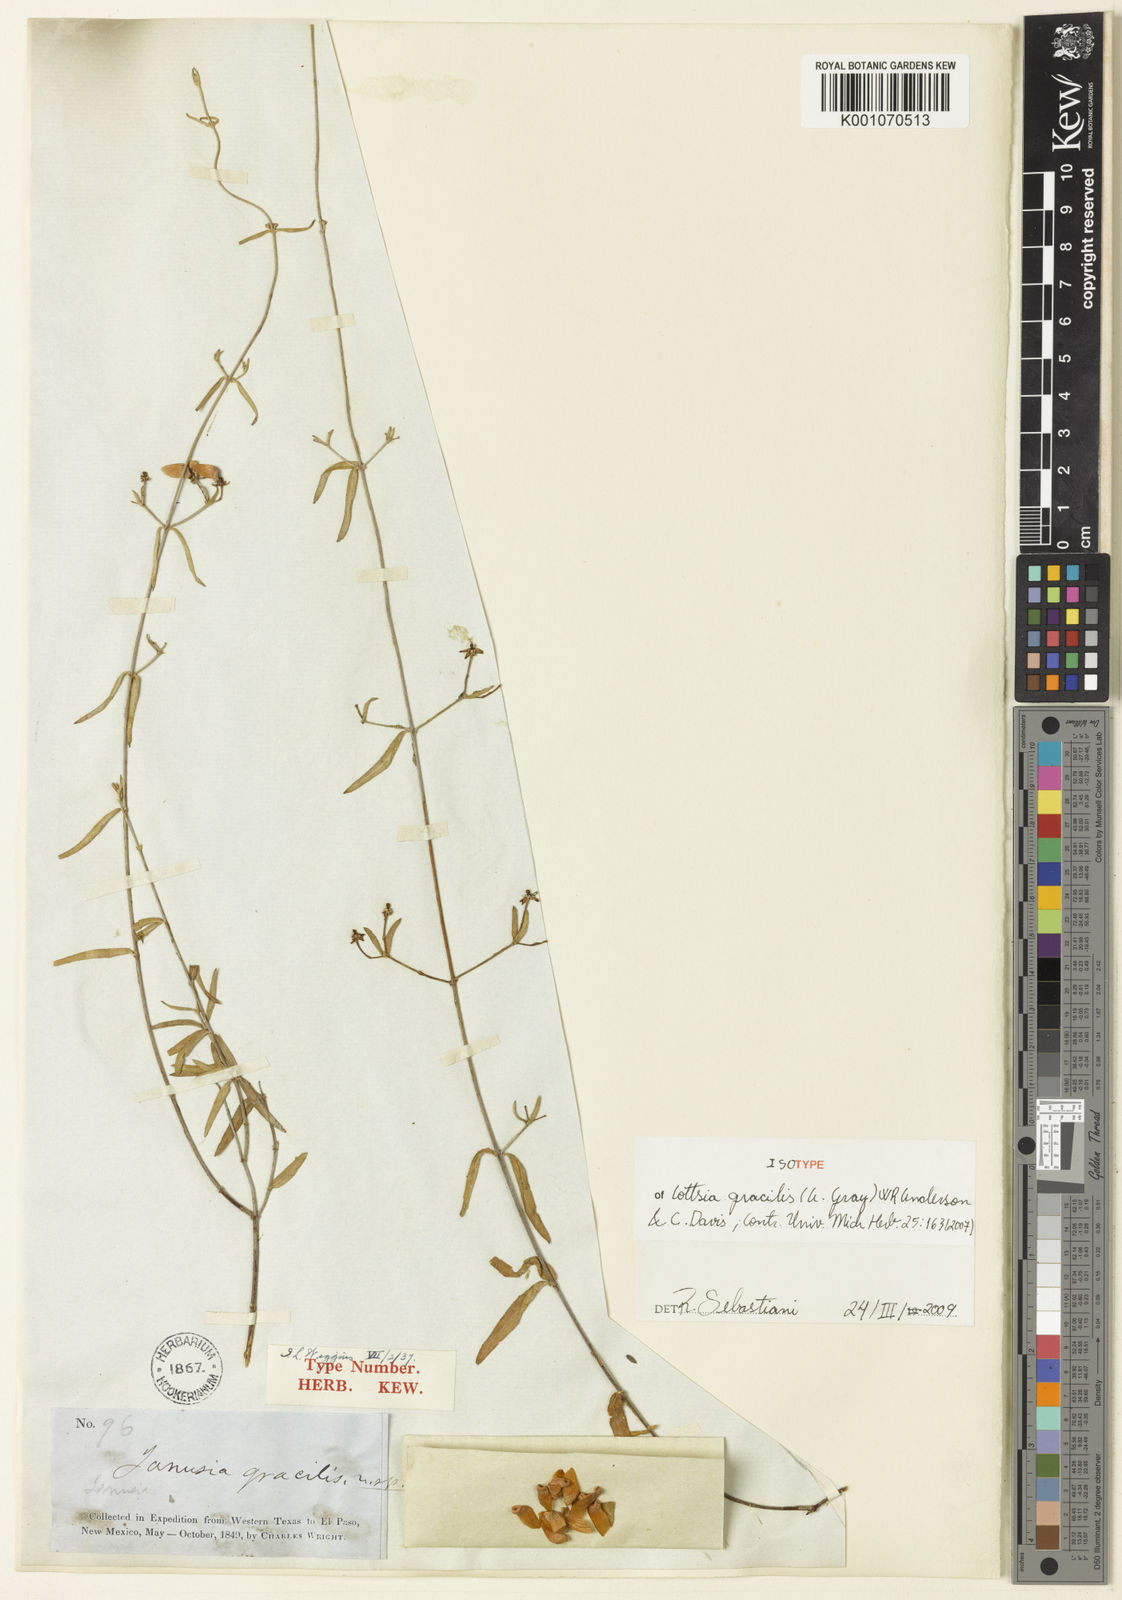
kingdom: Plantae
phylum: Tracheophyta
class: Magnoliopsida
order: Malpighiales
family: Malpighiaceae
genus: Cottsia
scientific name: Cottsia gracilis
